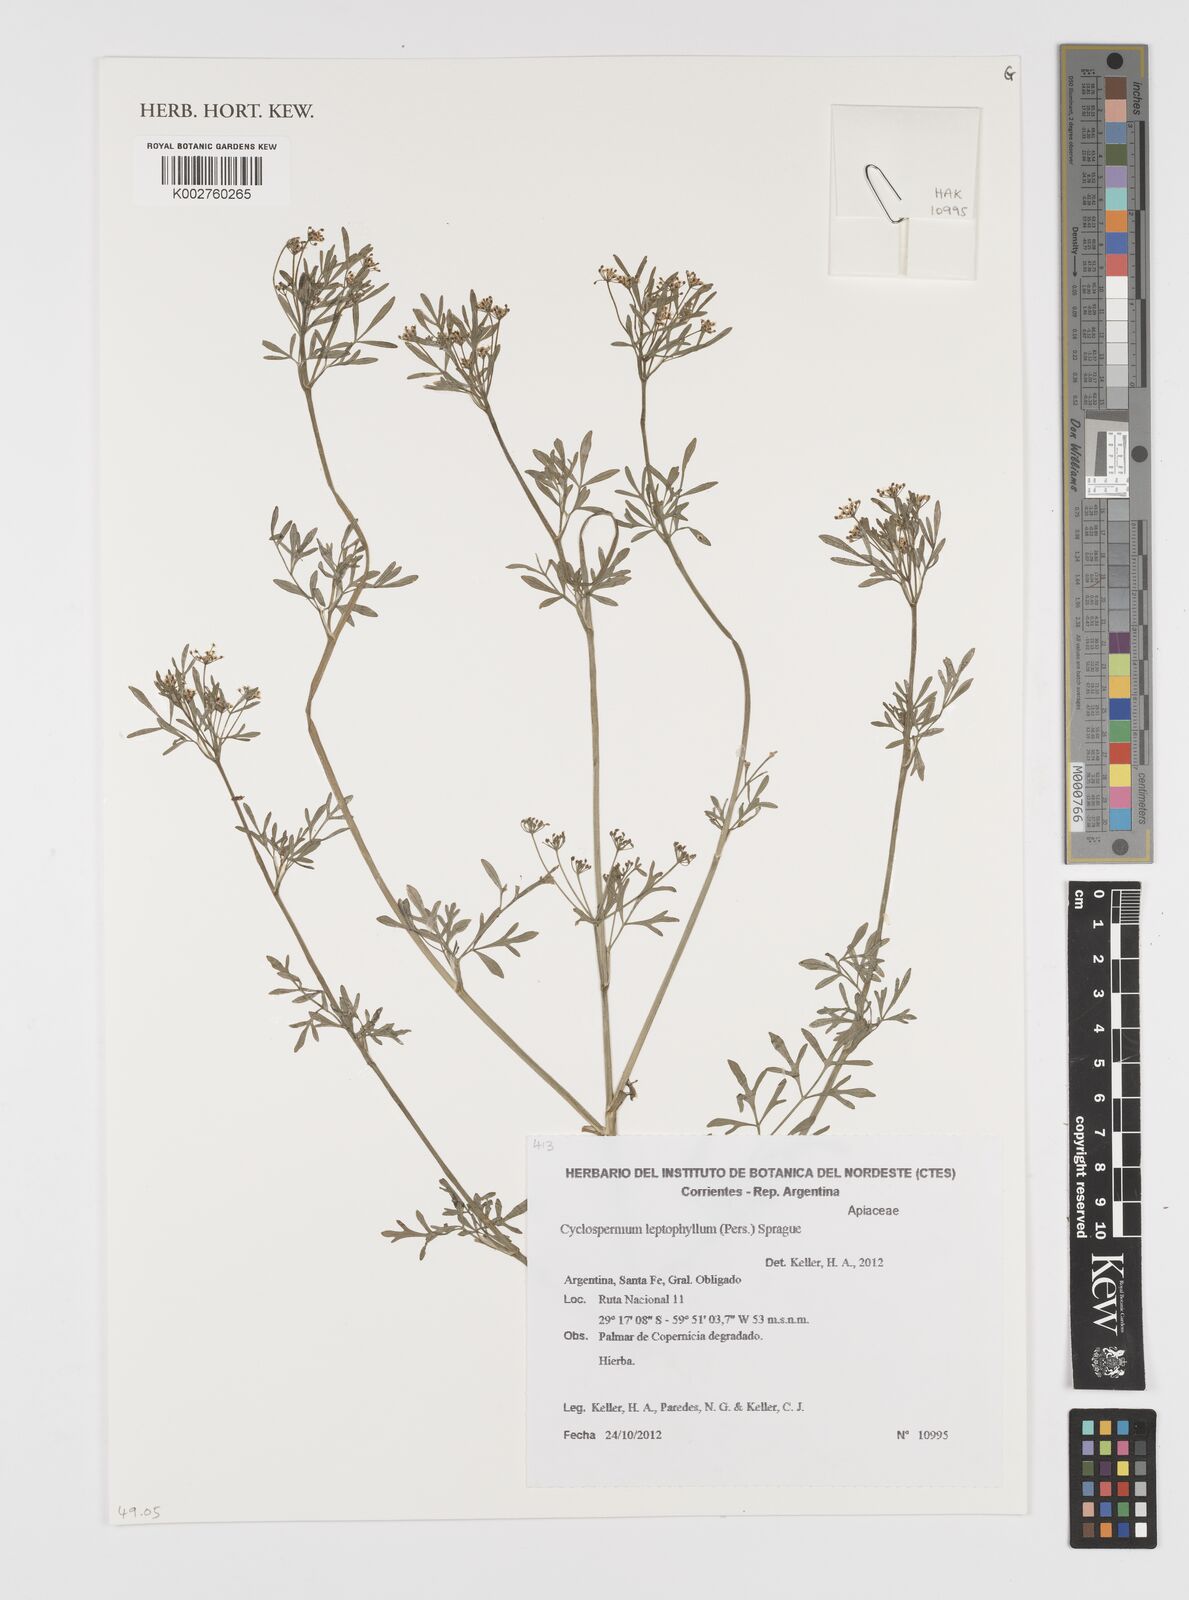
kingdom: Plantae
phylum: Tracheophyta
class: Magnoliopsida
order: Apiales
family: Apiaceae
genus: Cyclospermum
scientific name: Cyclospermum leptophyllum
